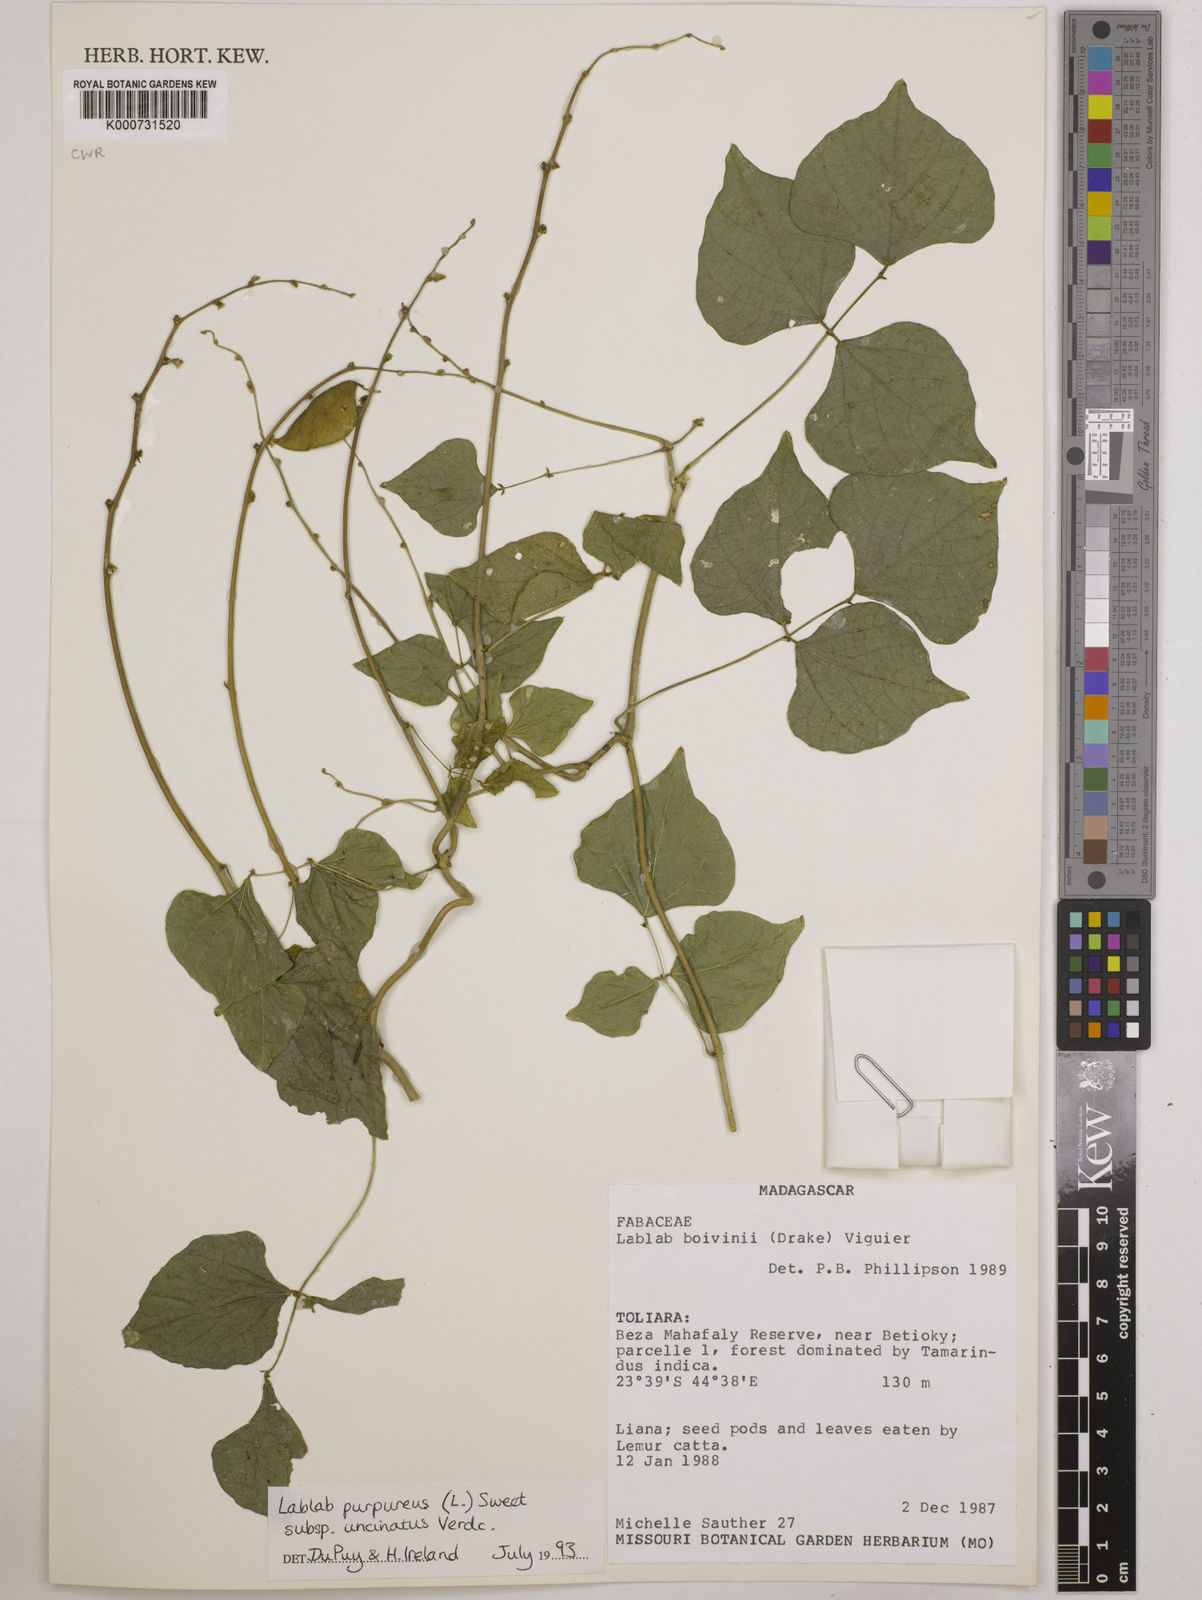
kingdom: Plantae
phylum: Tracheophyta
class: Magnoliopsida
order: Fabales
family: Fabaceae
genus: Lablab
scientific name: Lablab purpureus
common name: Lablab-bean
